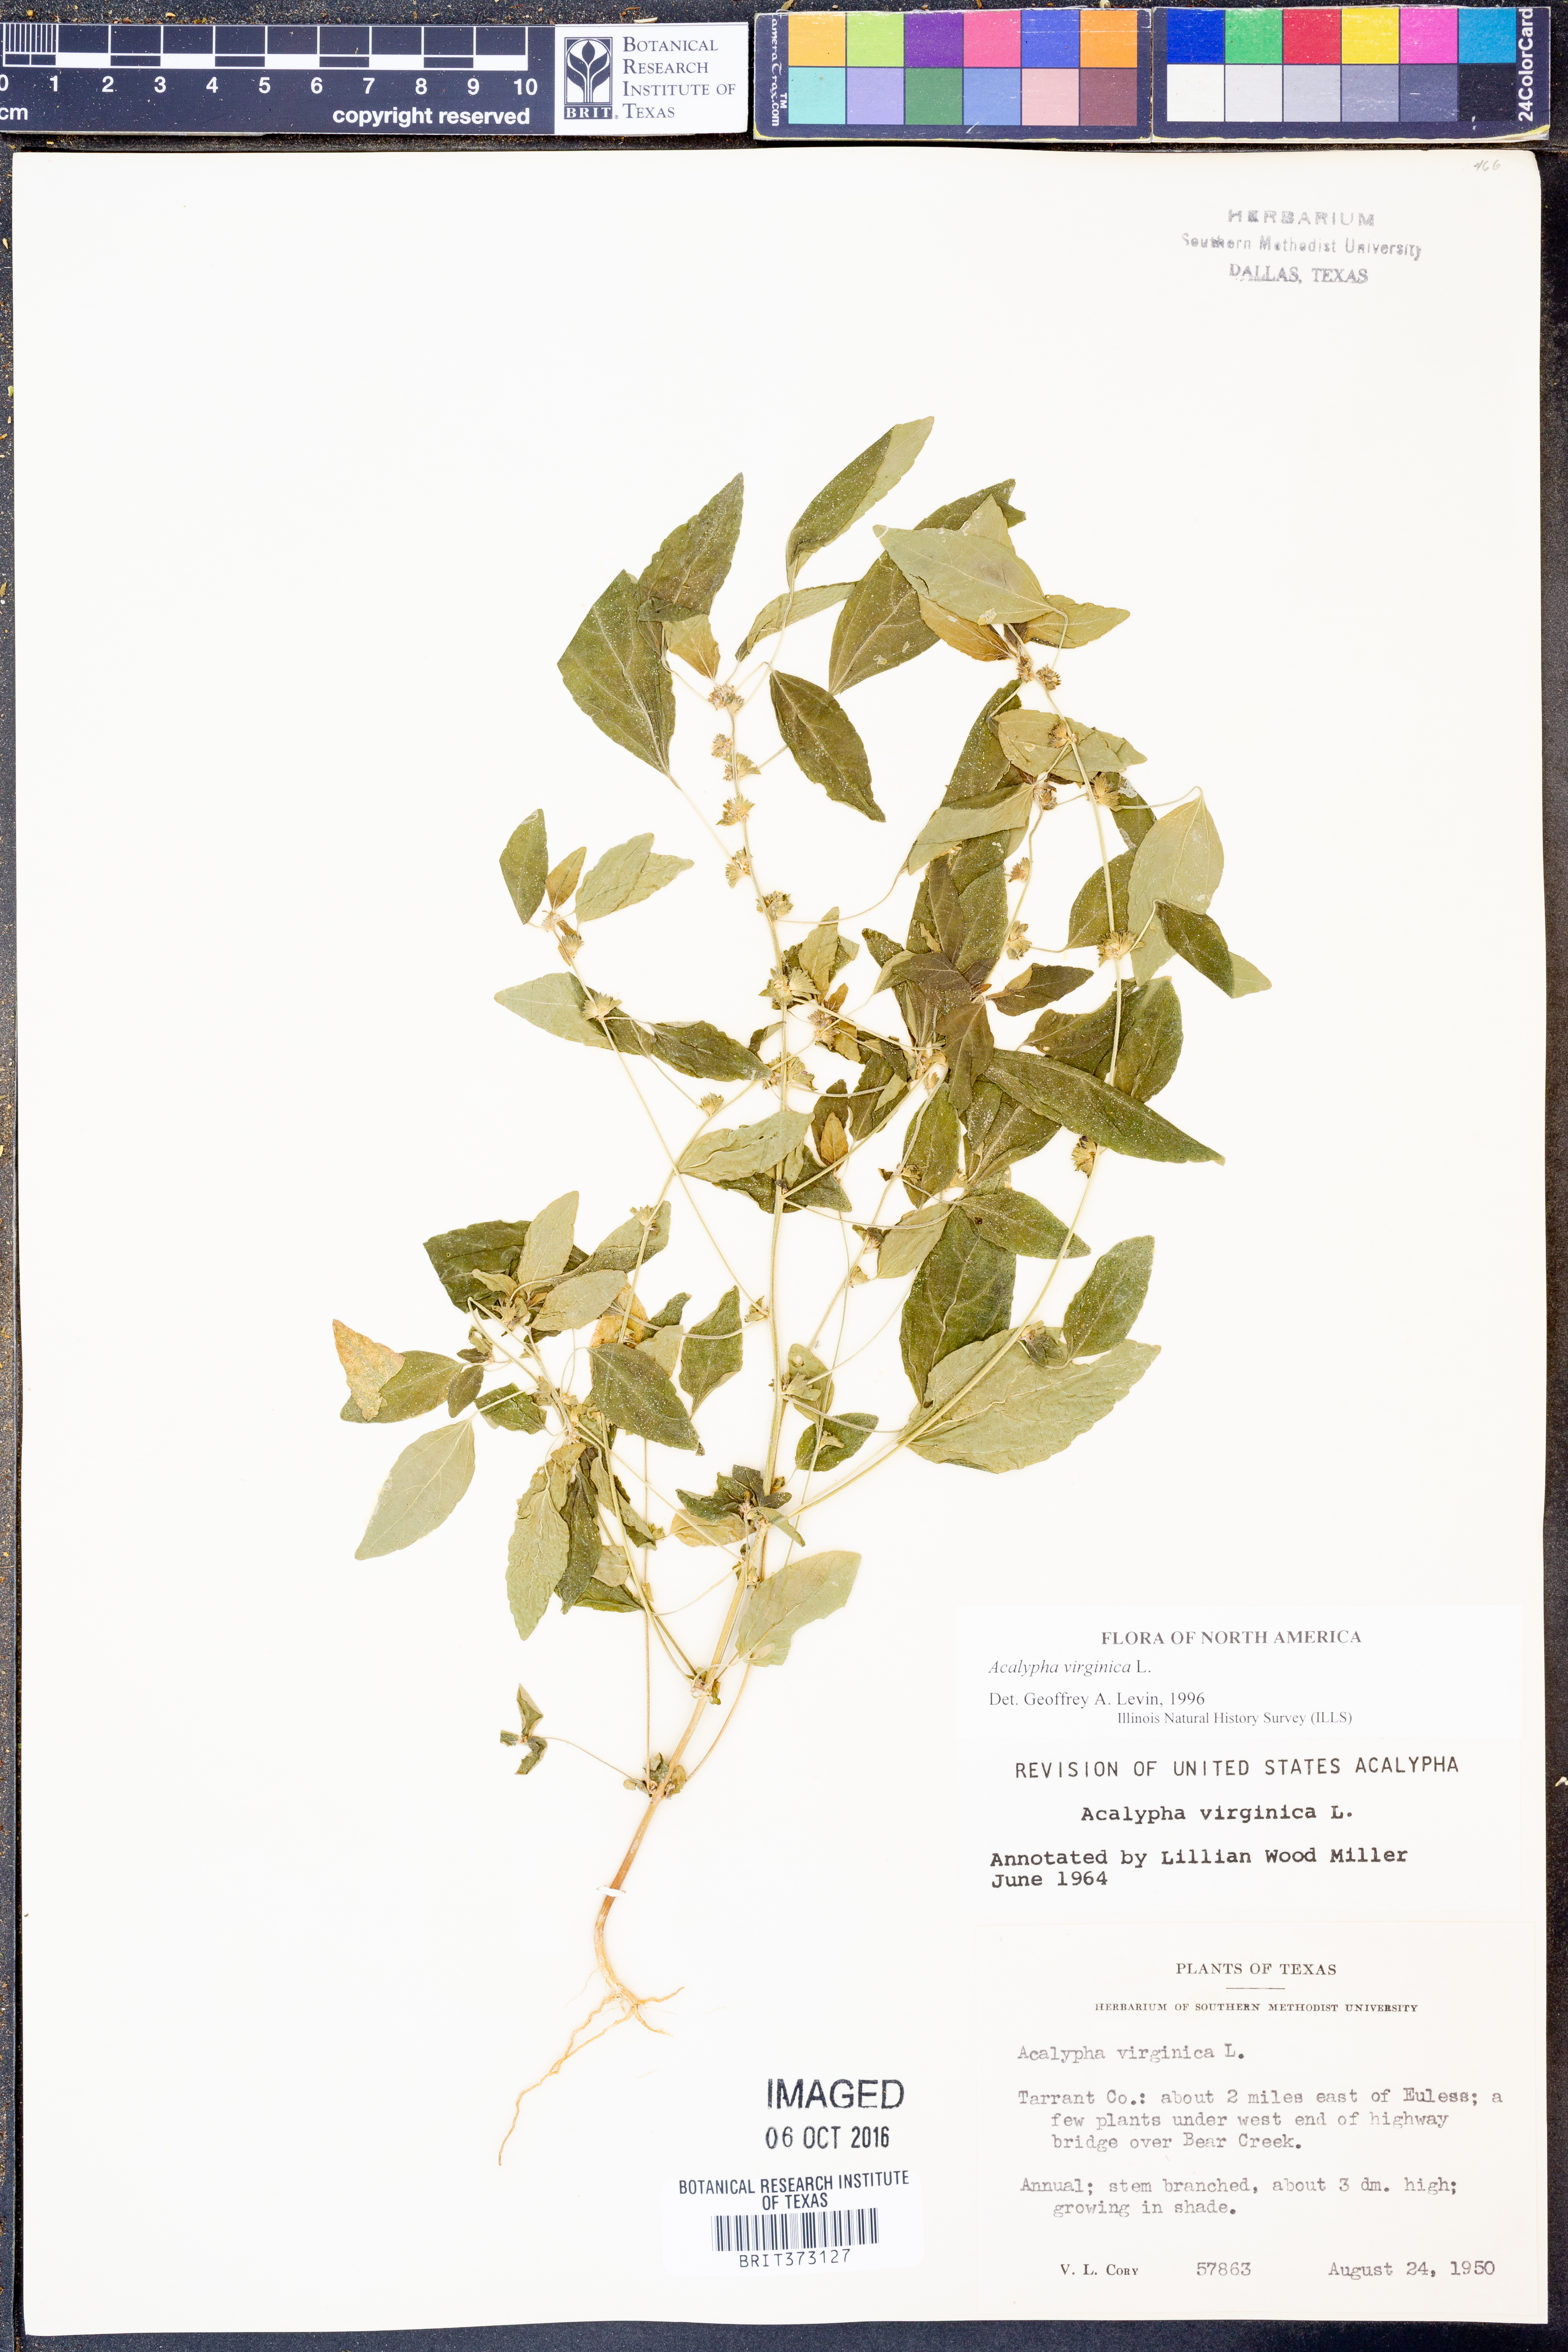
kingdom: Plantae
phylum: Tracheophyta
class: Magnoliopsida
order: Malpighiales
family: Euphorbiaceae
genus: Acalypha
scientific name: Acalypha virginica
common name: Virginia copperleaf
